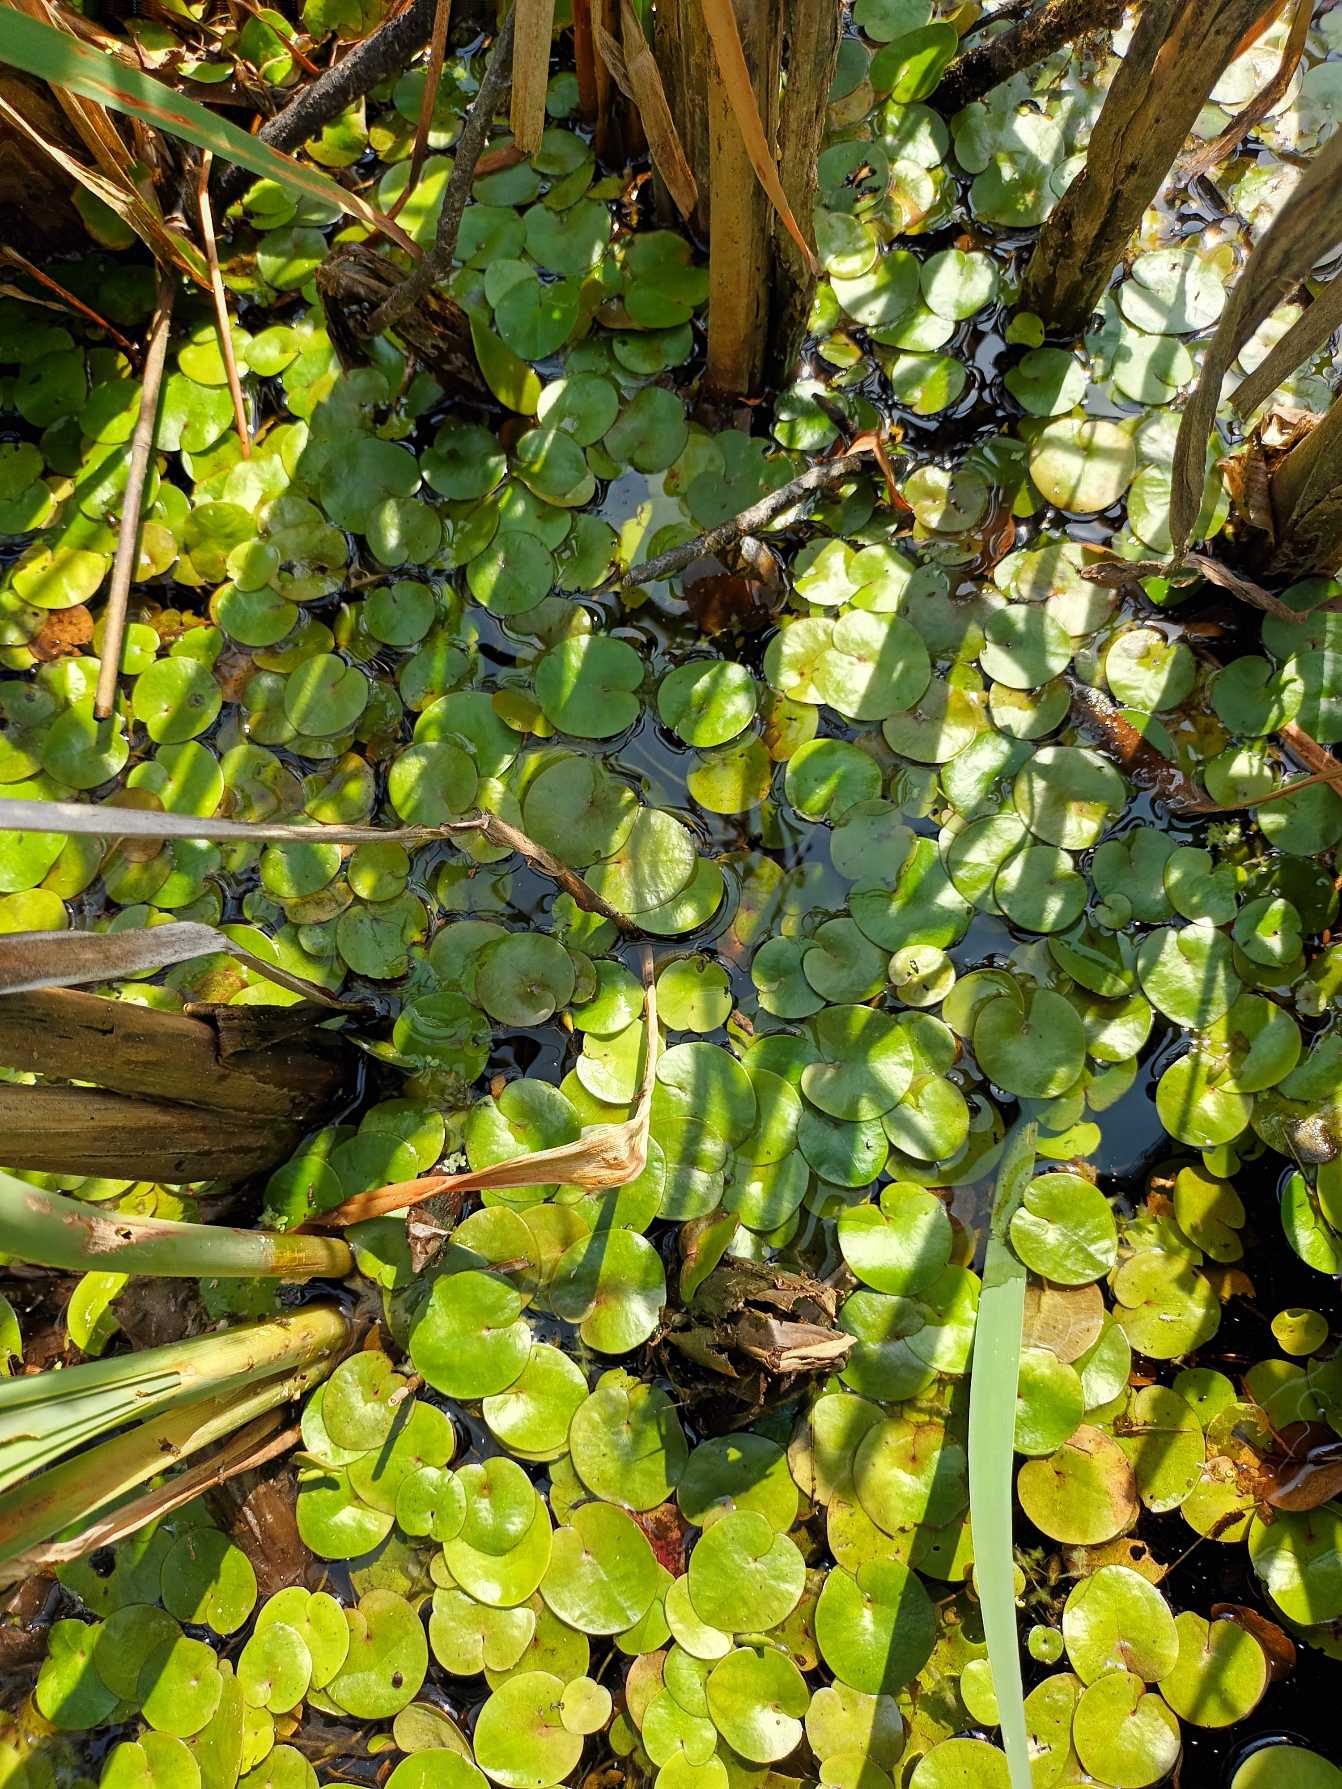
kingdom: Plantae
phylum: Tracheophyta
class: Liliopsida
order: Alismatales
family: Hydrocharitaceae
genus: Hydrocharis
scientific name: Hydrocharis morsus-ranae
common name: Frøbid
